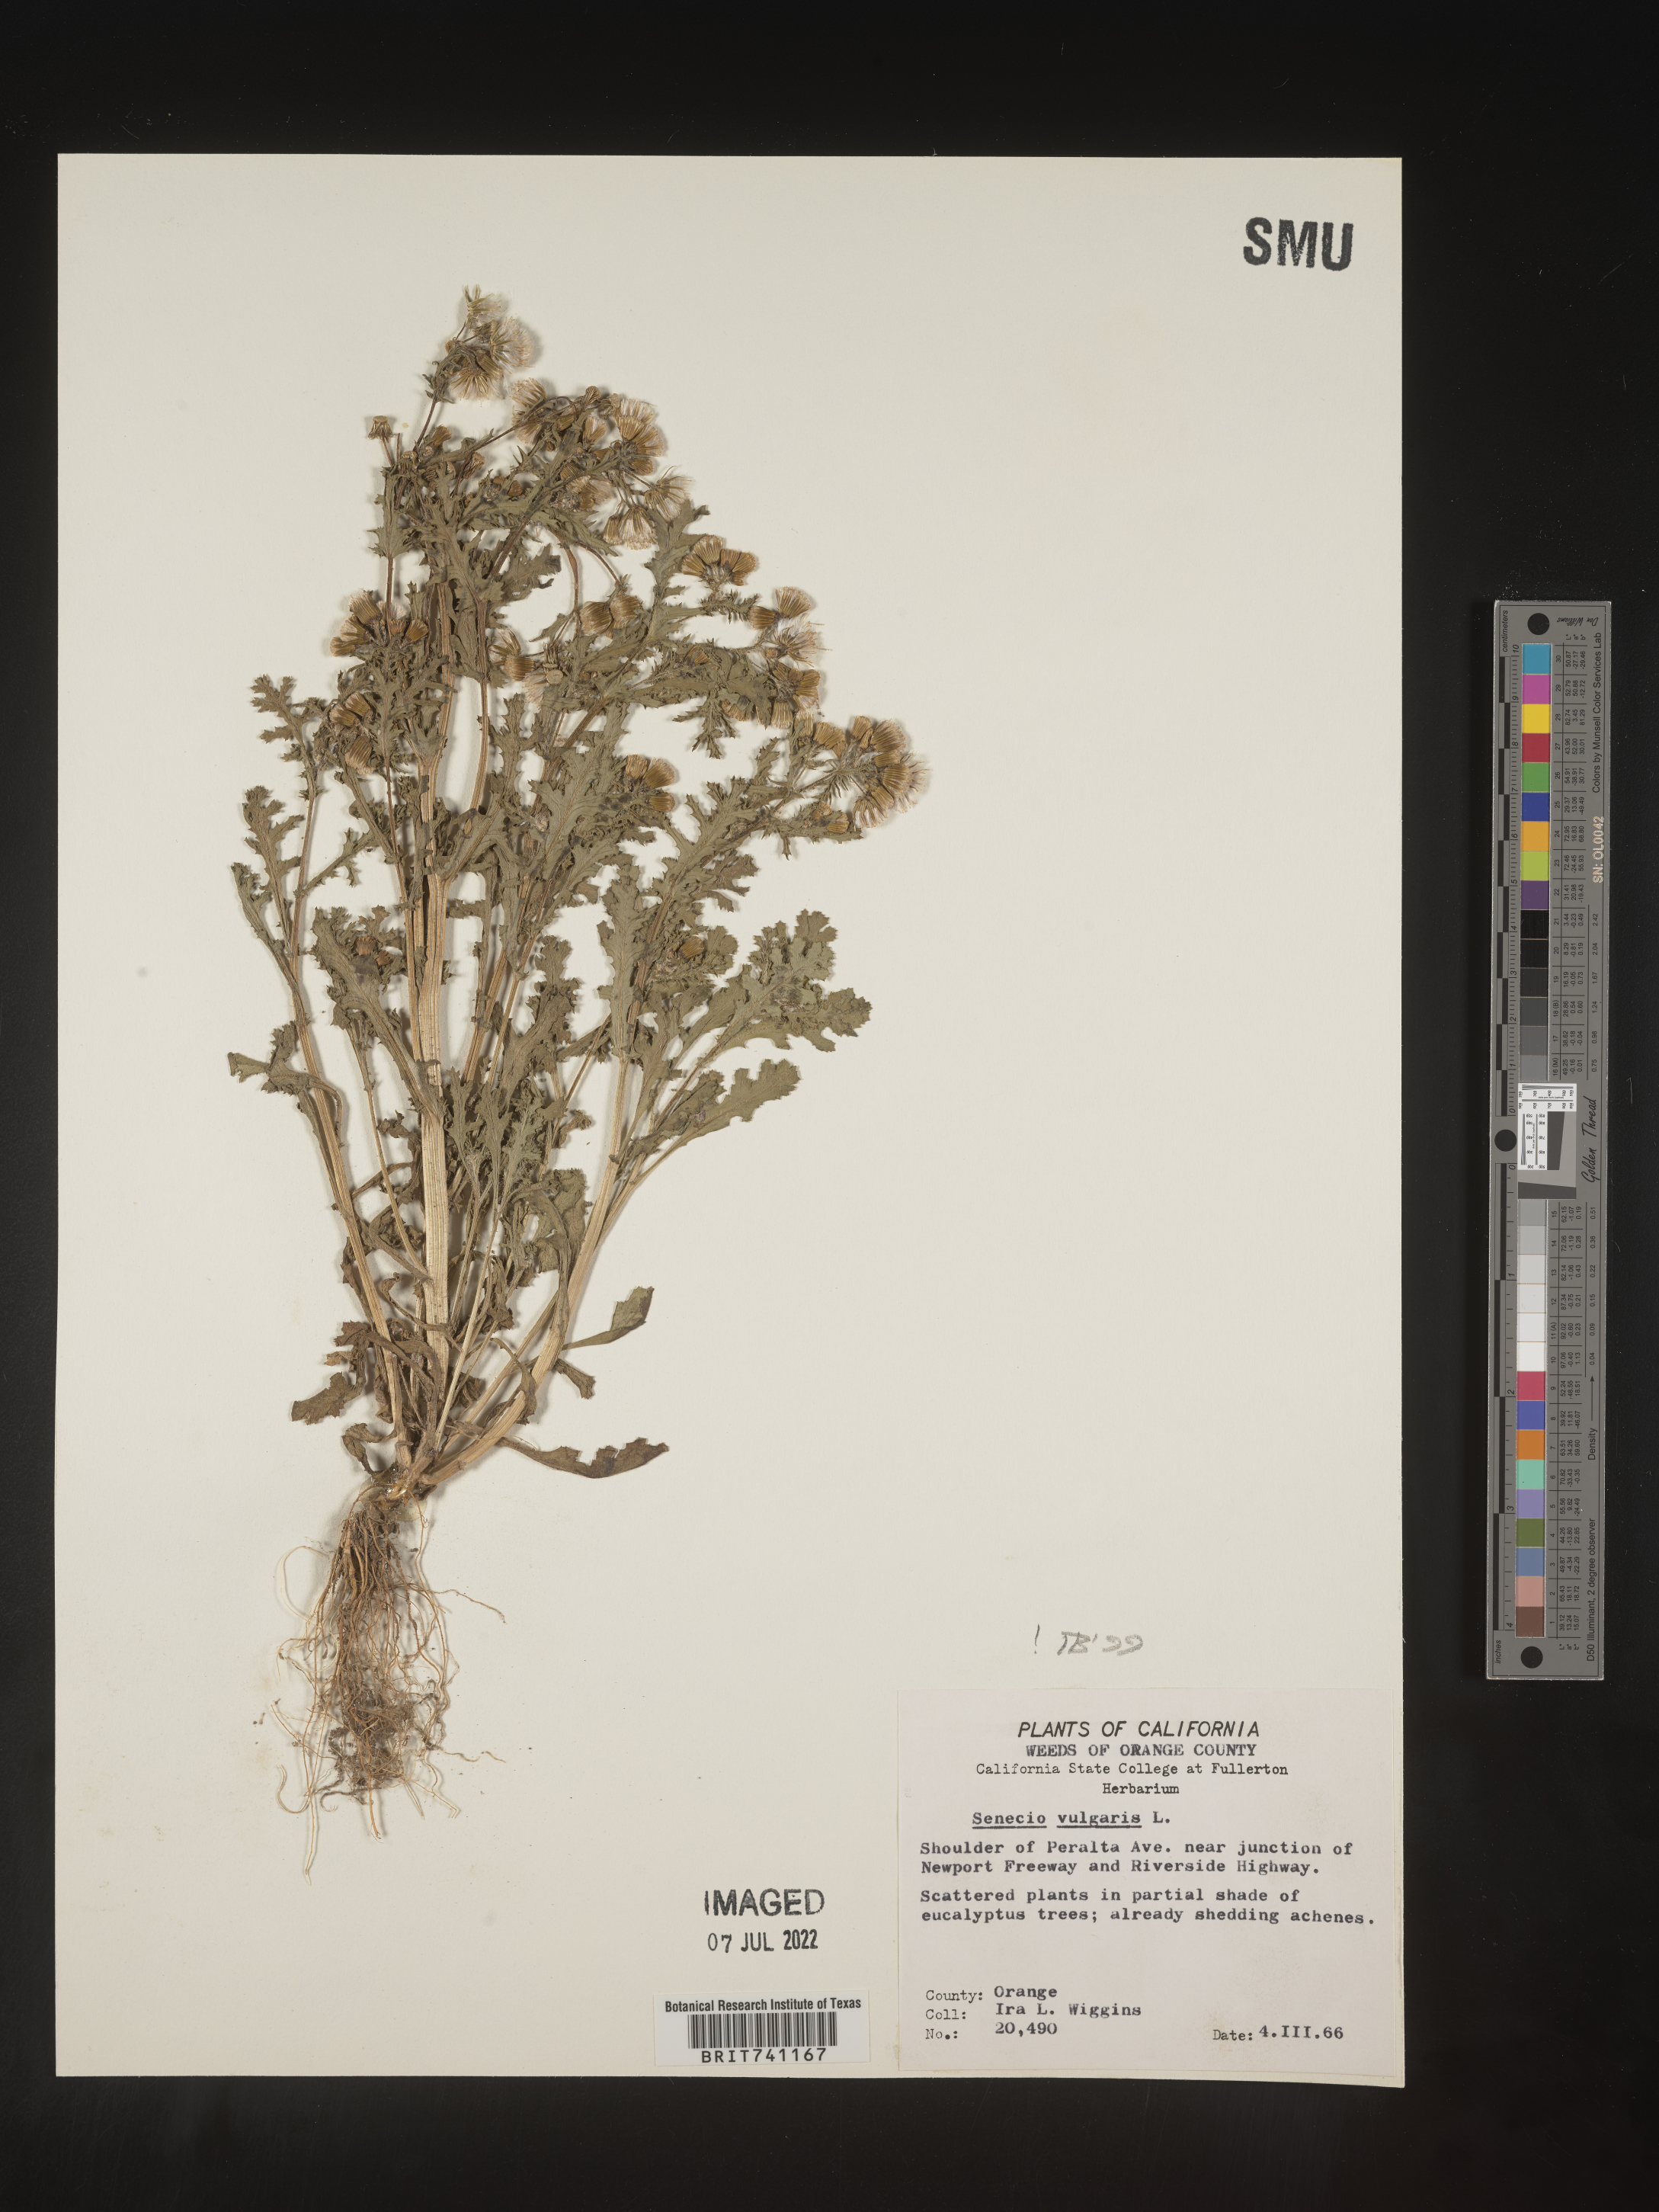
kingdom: Plantae
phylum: Tracheophyta
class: Magnoliopsida
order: Asterales
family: Asteraceae
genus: Senecio
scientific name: Senecio vulgaris
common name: Old-man-in-the-spring
